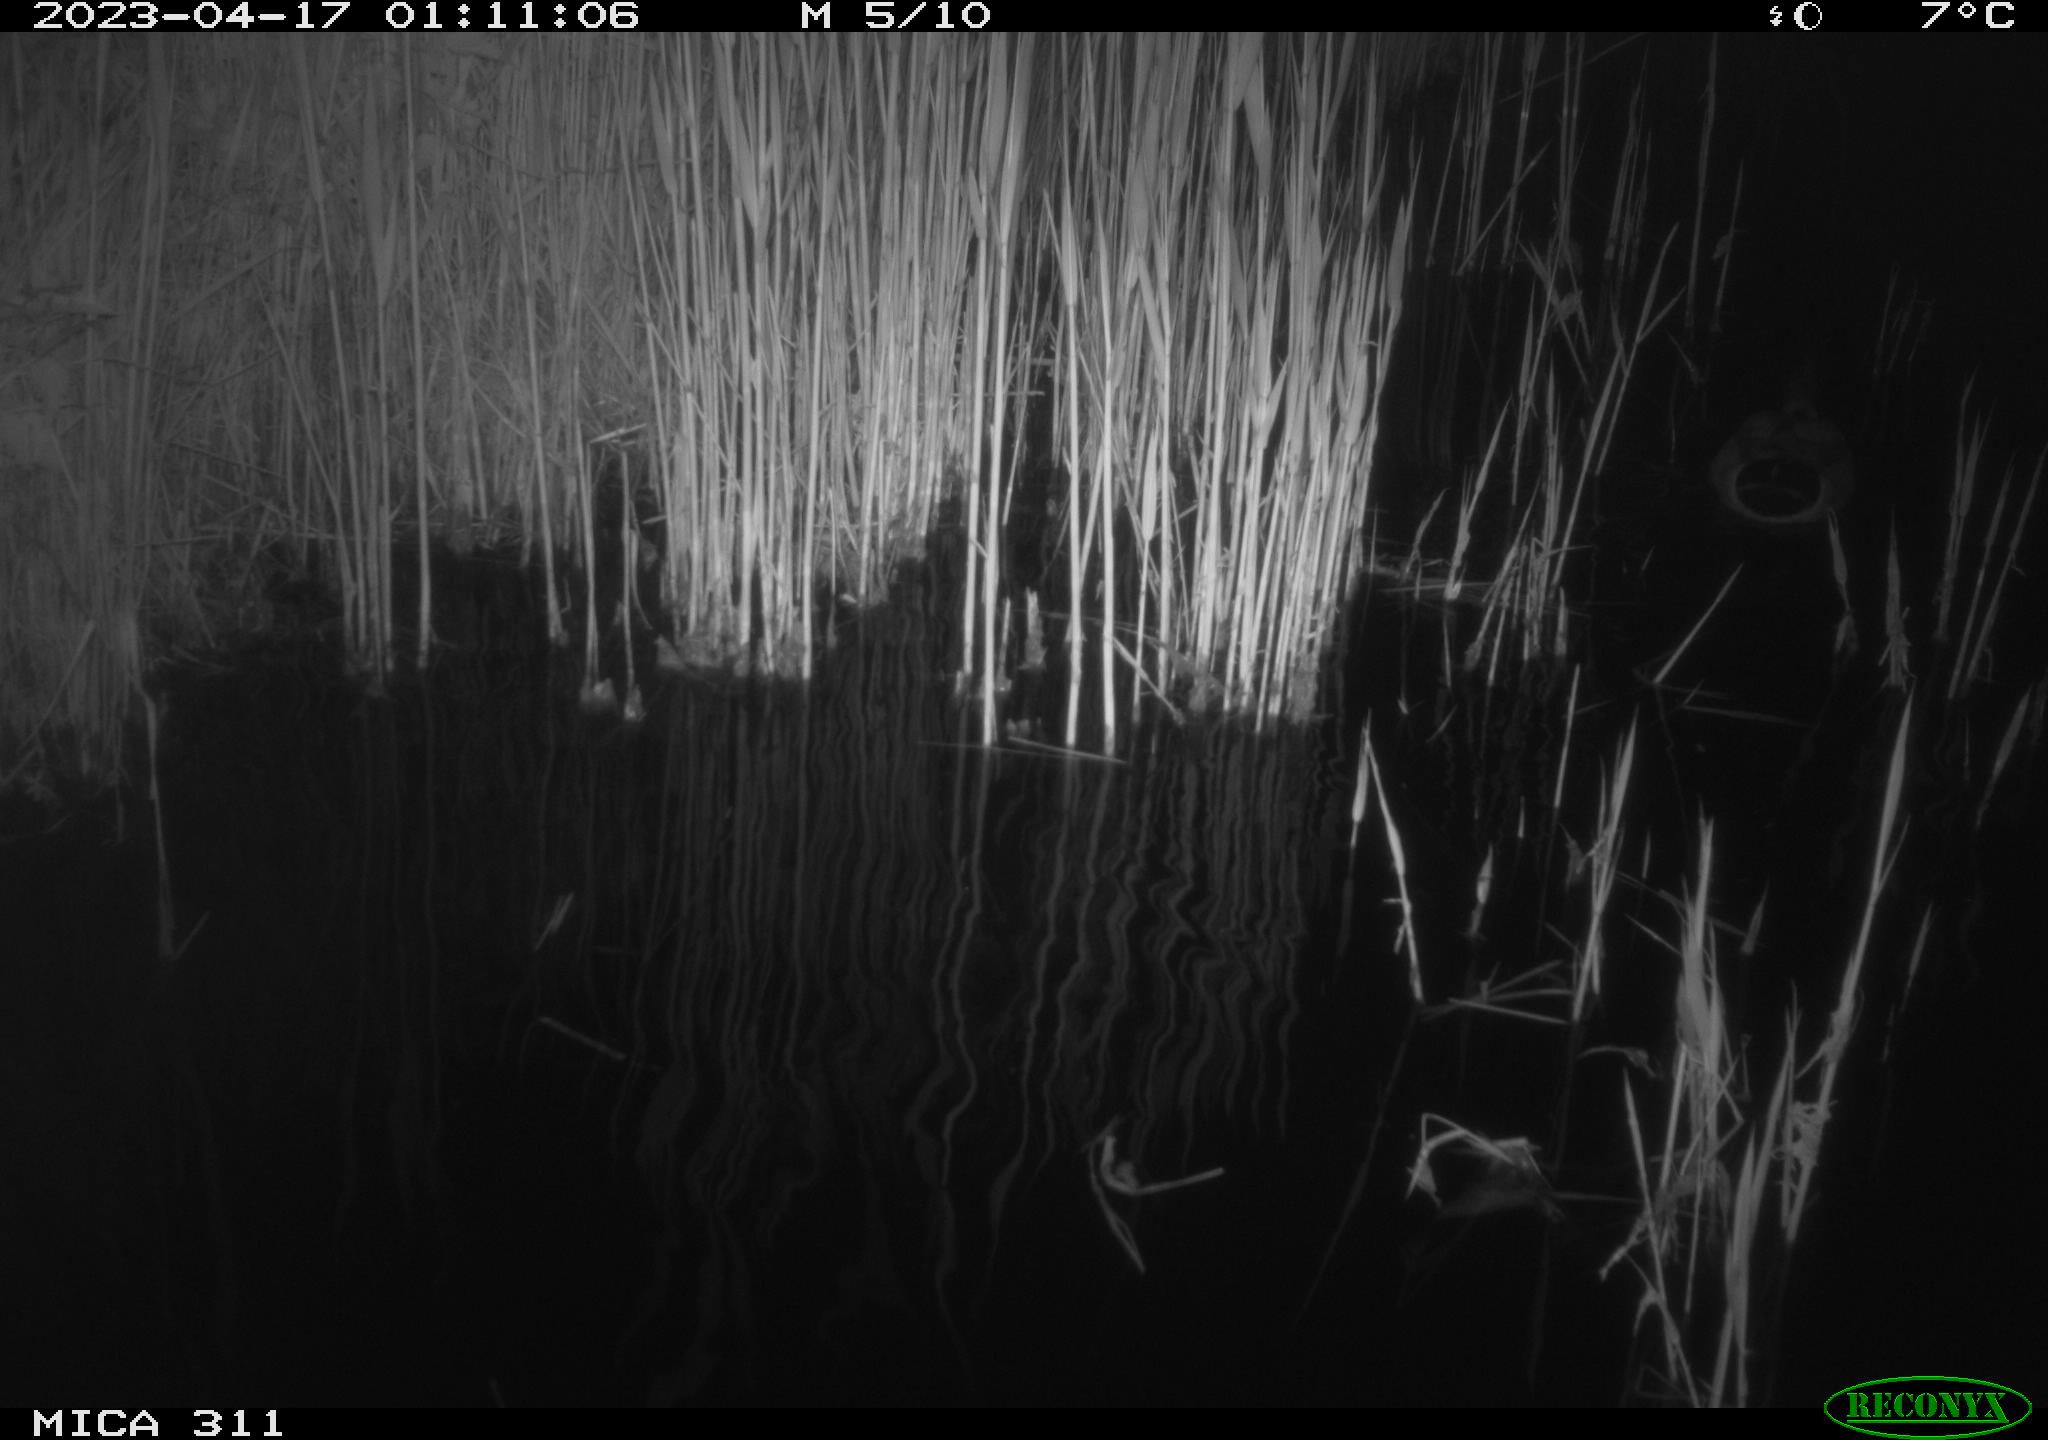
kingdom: Animalia
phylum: Chordata
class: Aves
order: Anseriformes
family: Anatidae
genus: Anas
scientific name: Anas
